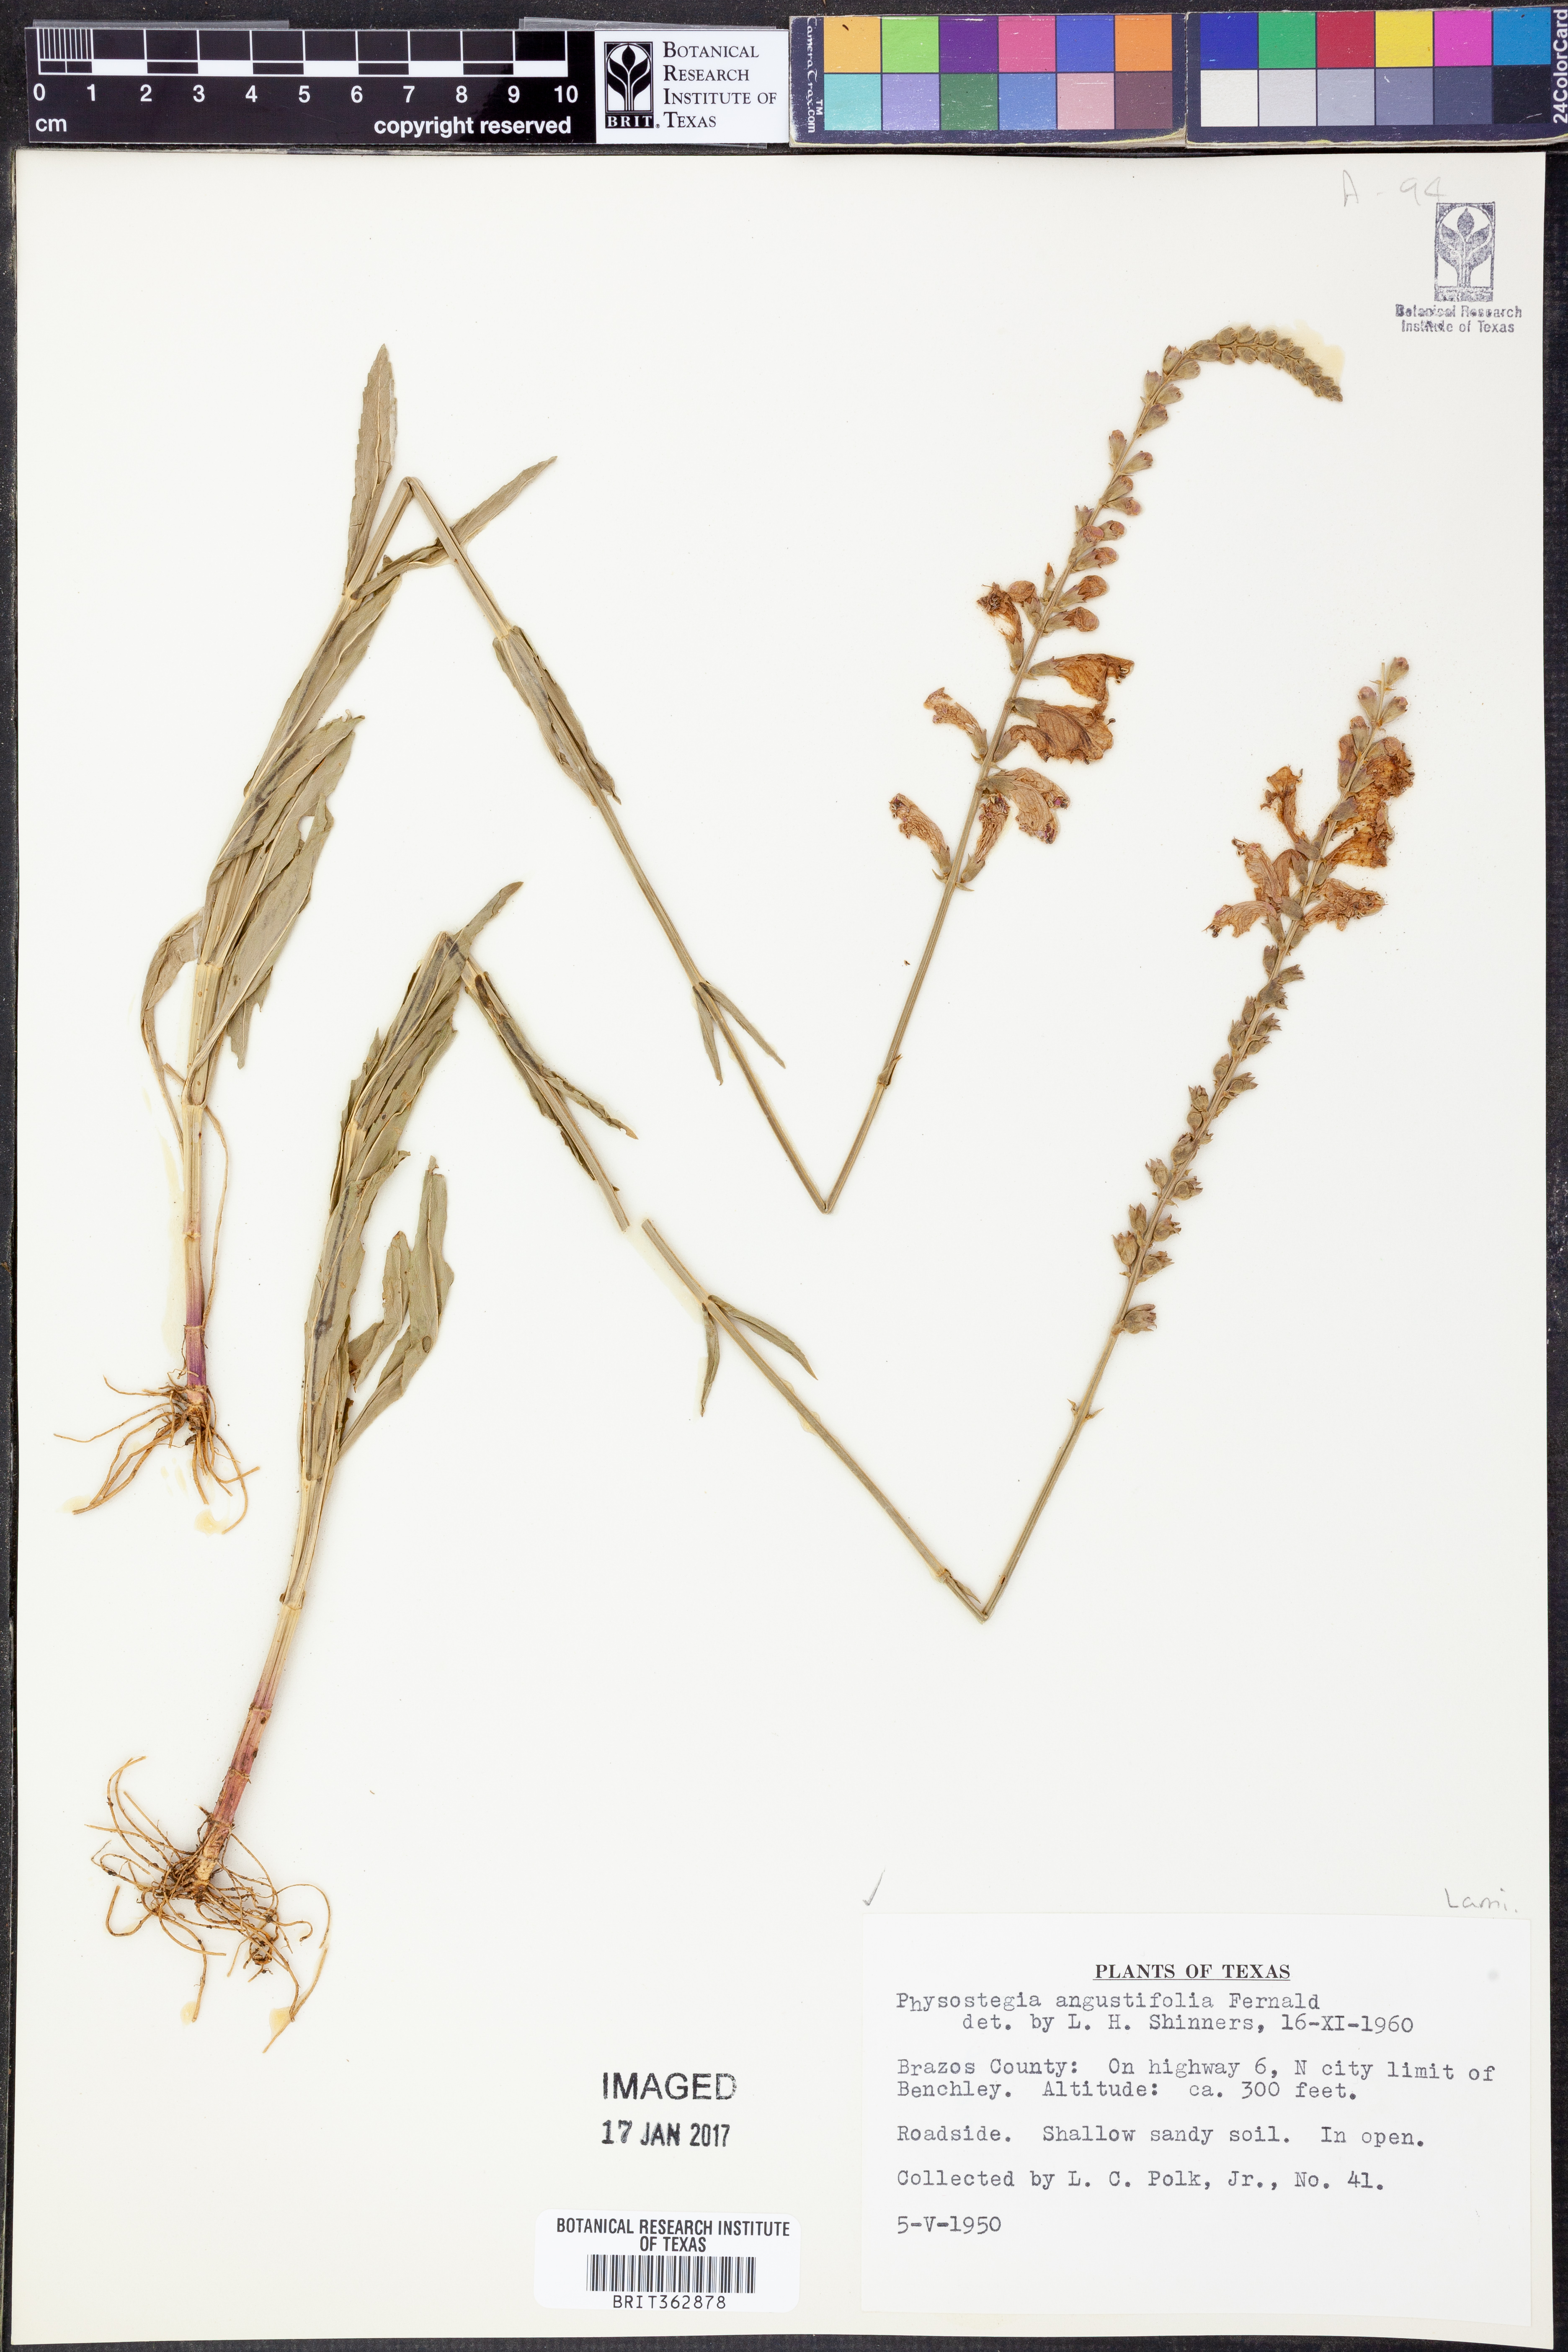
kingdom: Plantae
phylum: Tracheophyta
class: Magnoliopsida
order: Lamiales
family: Lamiaceae
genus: Physostegia
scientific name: Physostegia angustifolia
